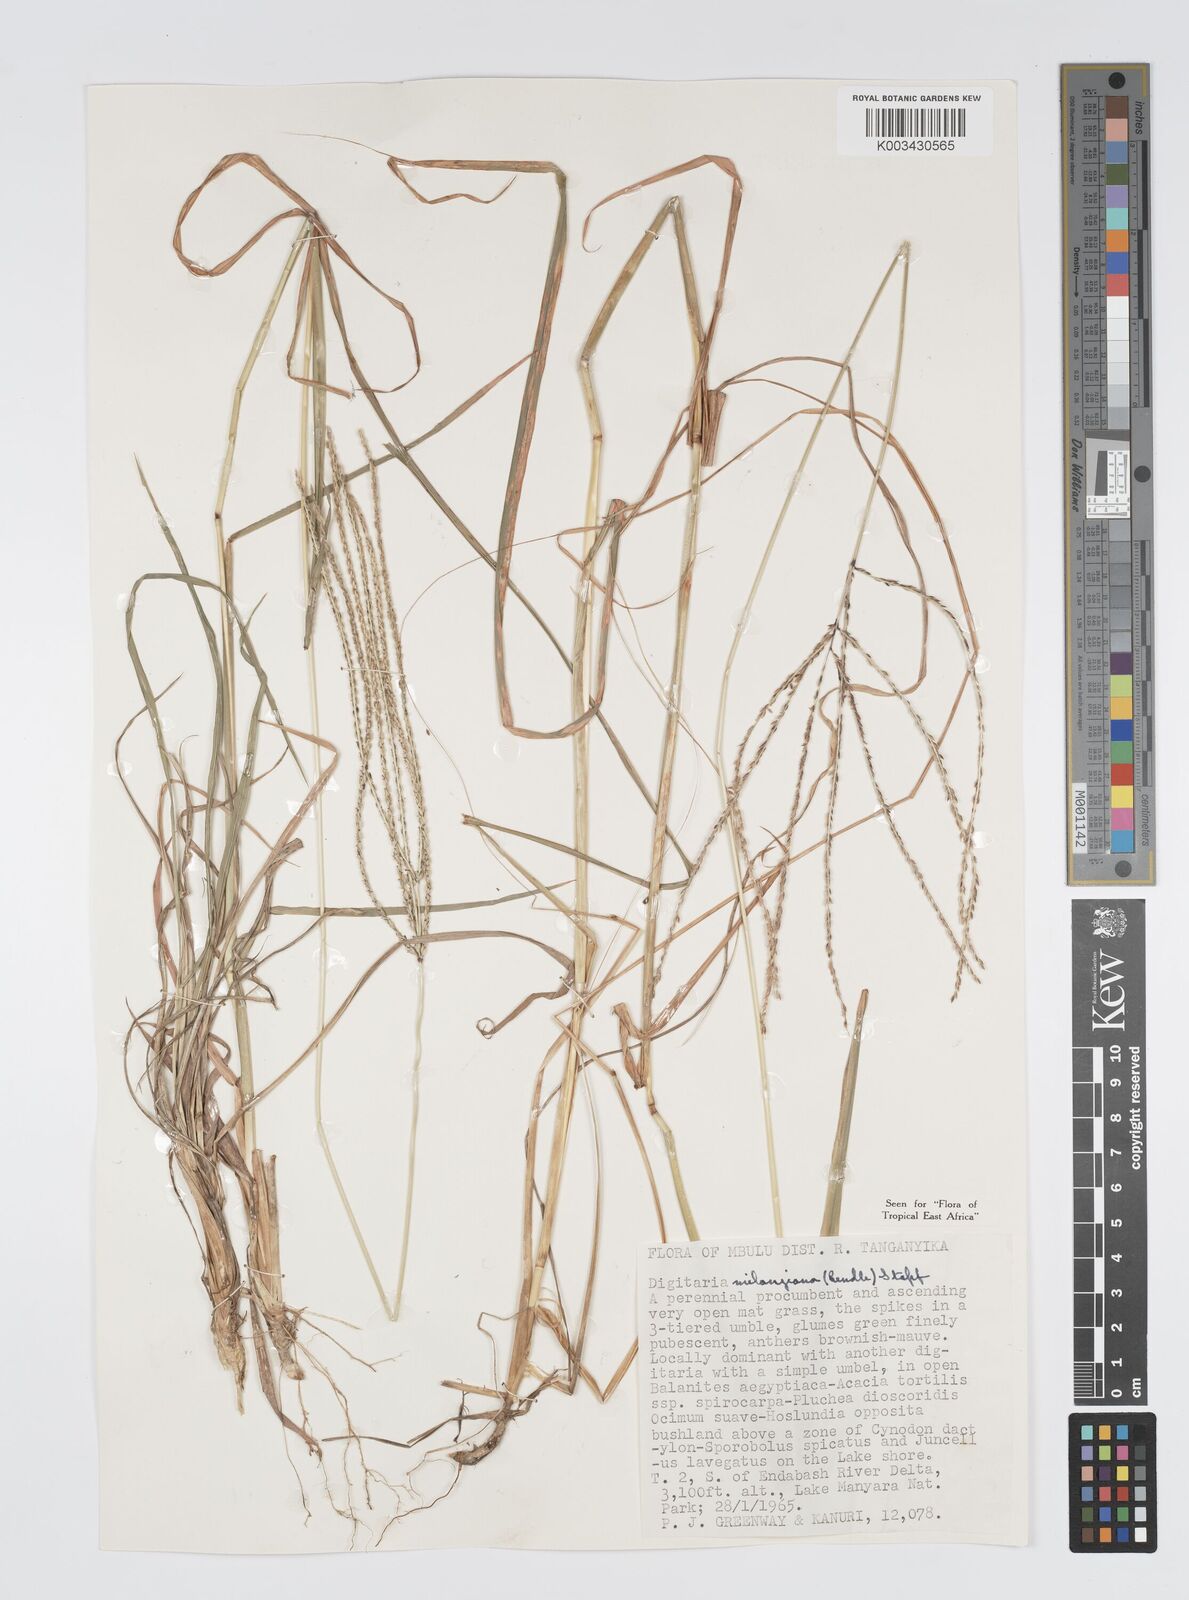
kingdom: Plantae
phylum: Tracheophyta
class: Liliopsida
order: Poales
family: Poaceae
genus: Digitaria
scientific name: Digitaria milanjiana
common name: Madagascar crabgrass
